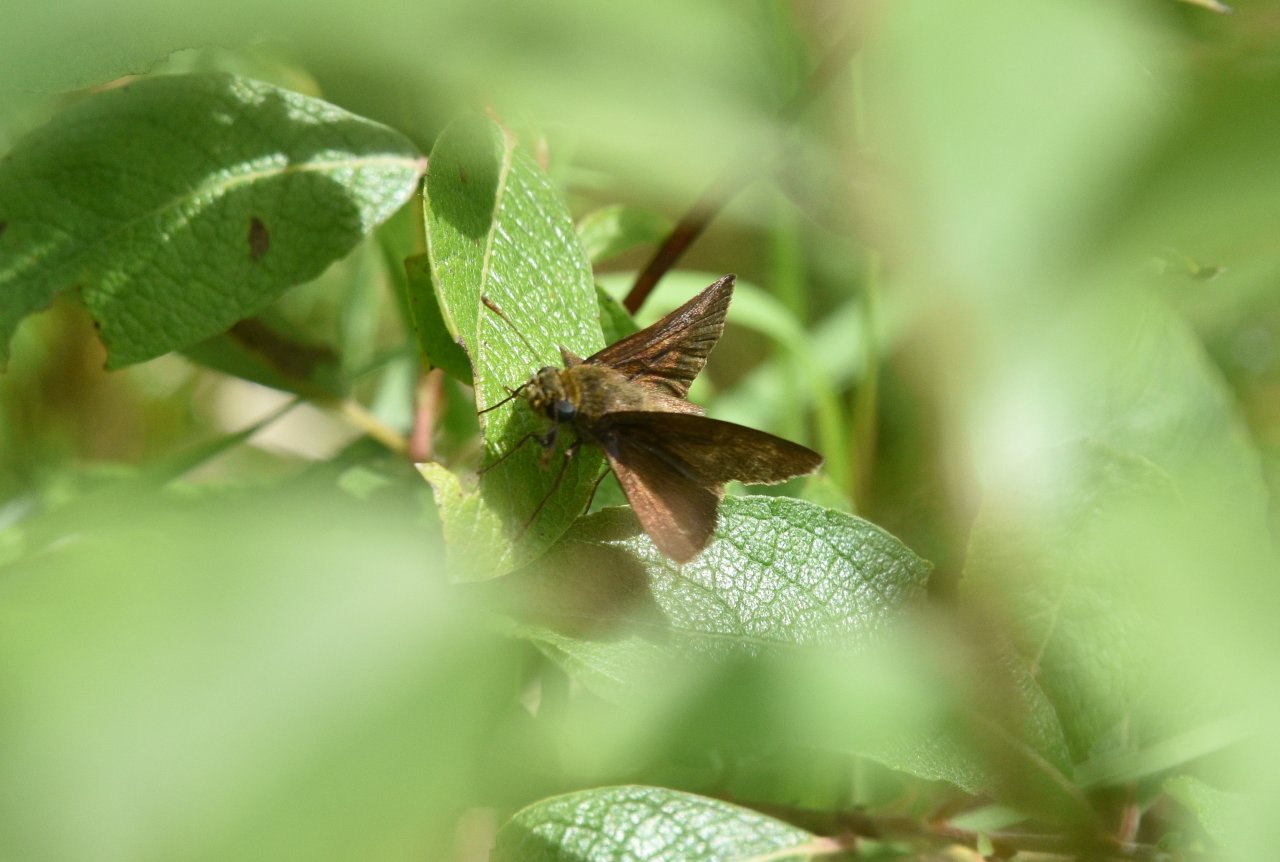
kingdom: Animalia
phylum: Arthropoda
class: Insecta
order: Lepidoptera
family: Hesperiidae
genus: Euphyes
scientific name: Euphyes vestris
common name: Dun Skipper
